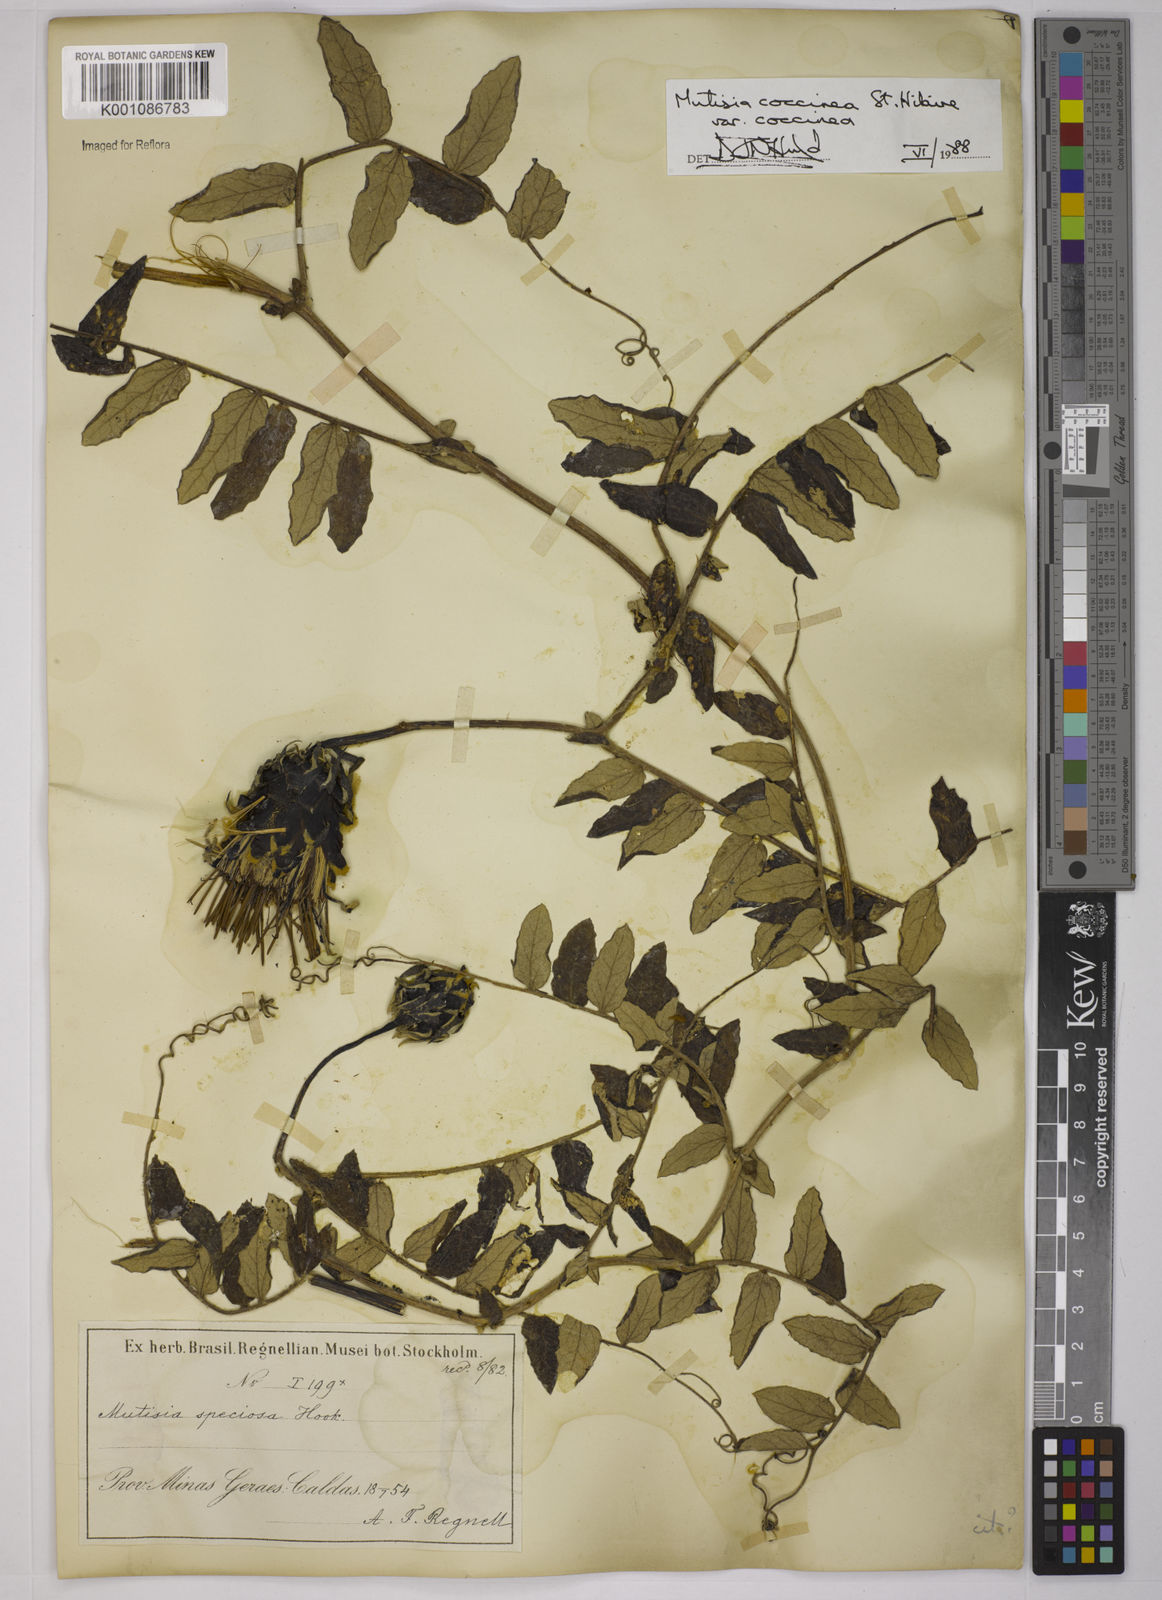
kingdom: Plantae
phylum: Tracheophyta
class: Magnoliopsida
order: Asterales
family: Asteraceae
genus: Mutisia
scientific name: Mutisia coccinea
